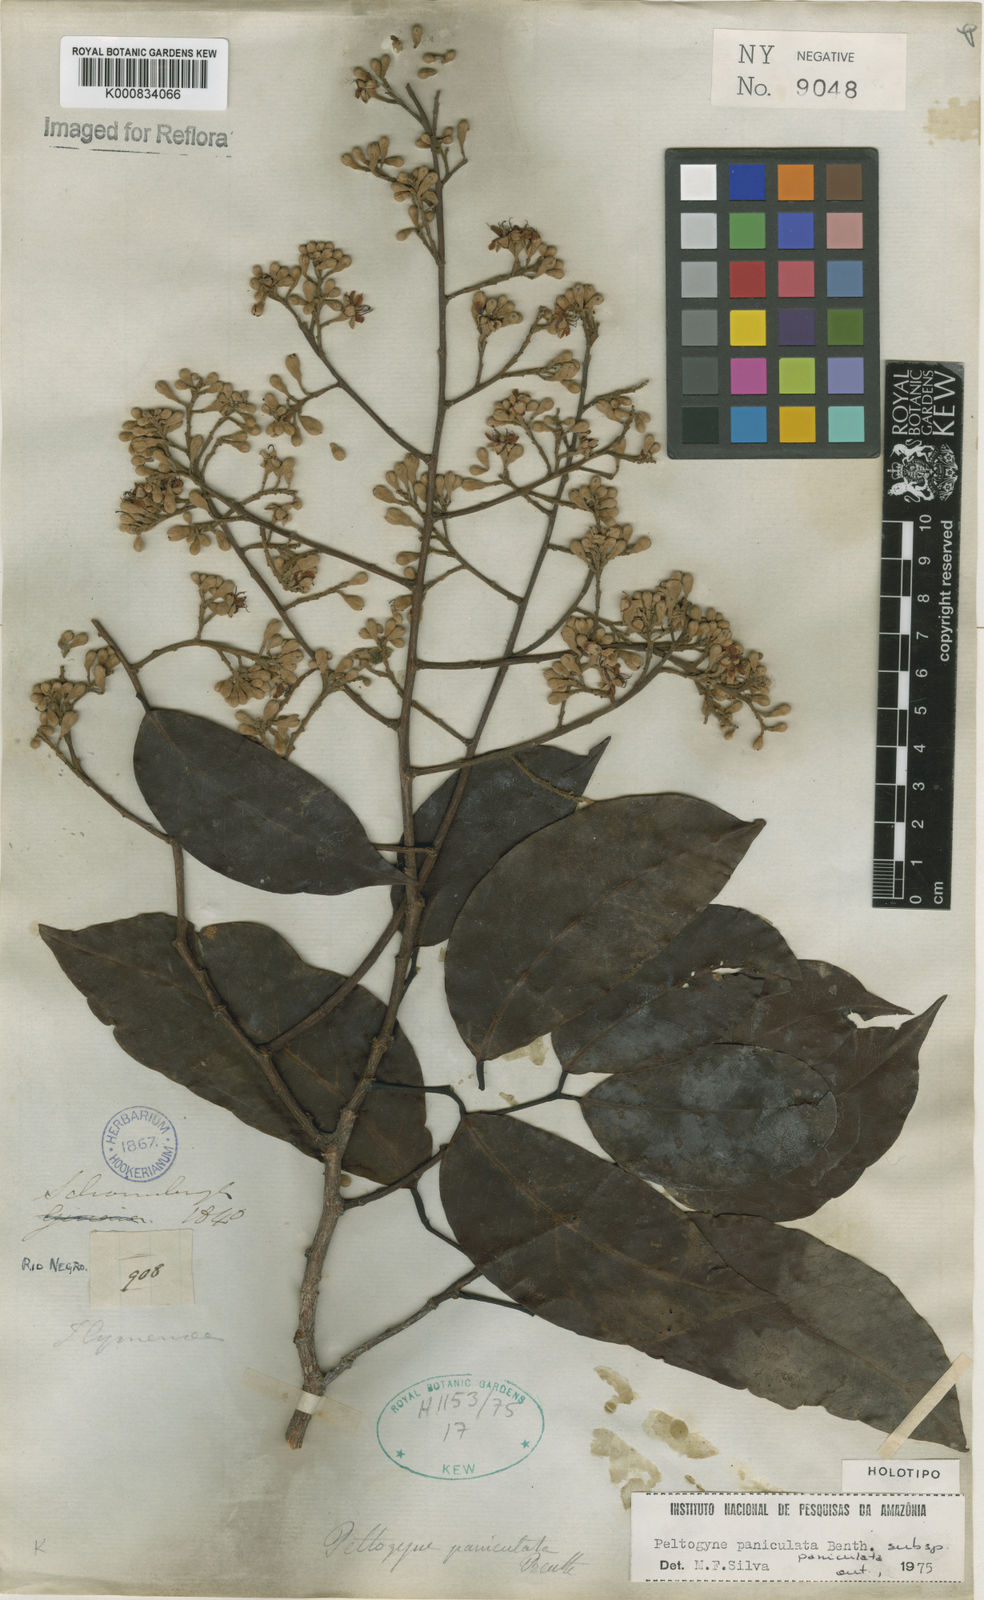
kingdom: Plantae
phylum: Tracheophyta
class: Magnoliopsida
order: Fabales
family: Fabaceae
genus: Peltogyne
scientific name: Peltogyne paniculata
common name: Purpleheart
